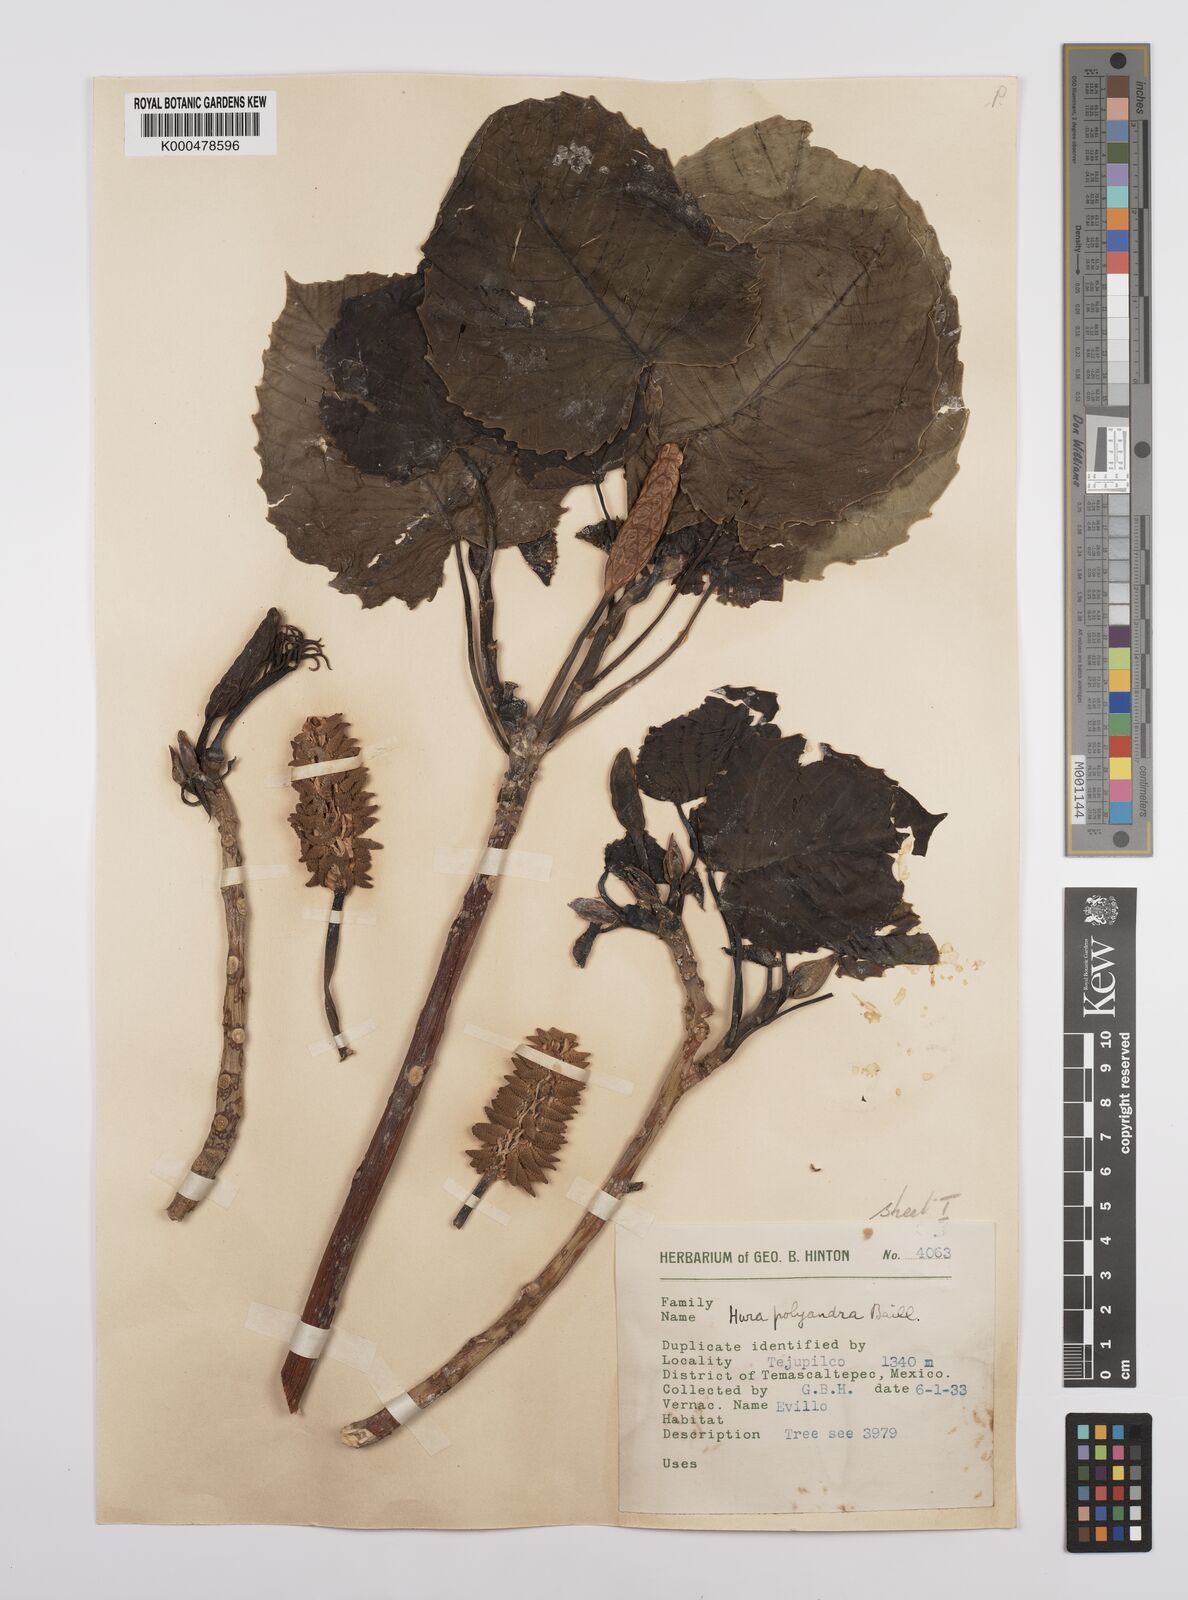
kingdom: Plantae
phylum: Tracheophyta
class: Magnoliopsida
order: Malpighiales
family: Euphorbiaceae
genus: Hura
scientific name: Hura polyandra
